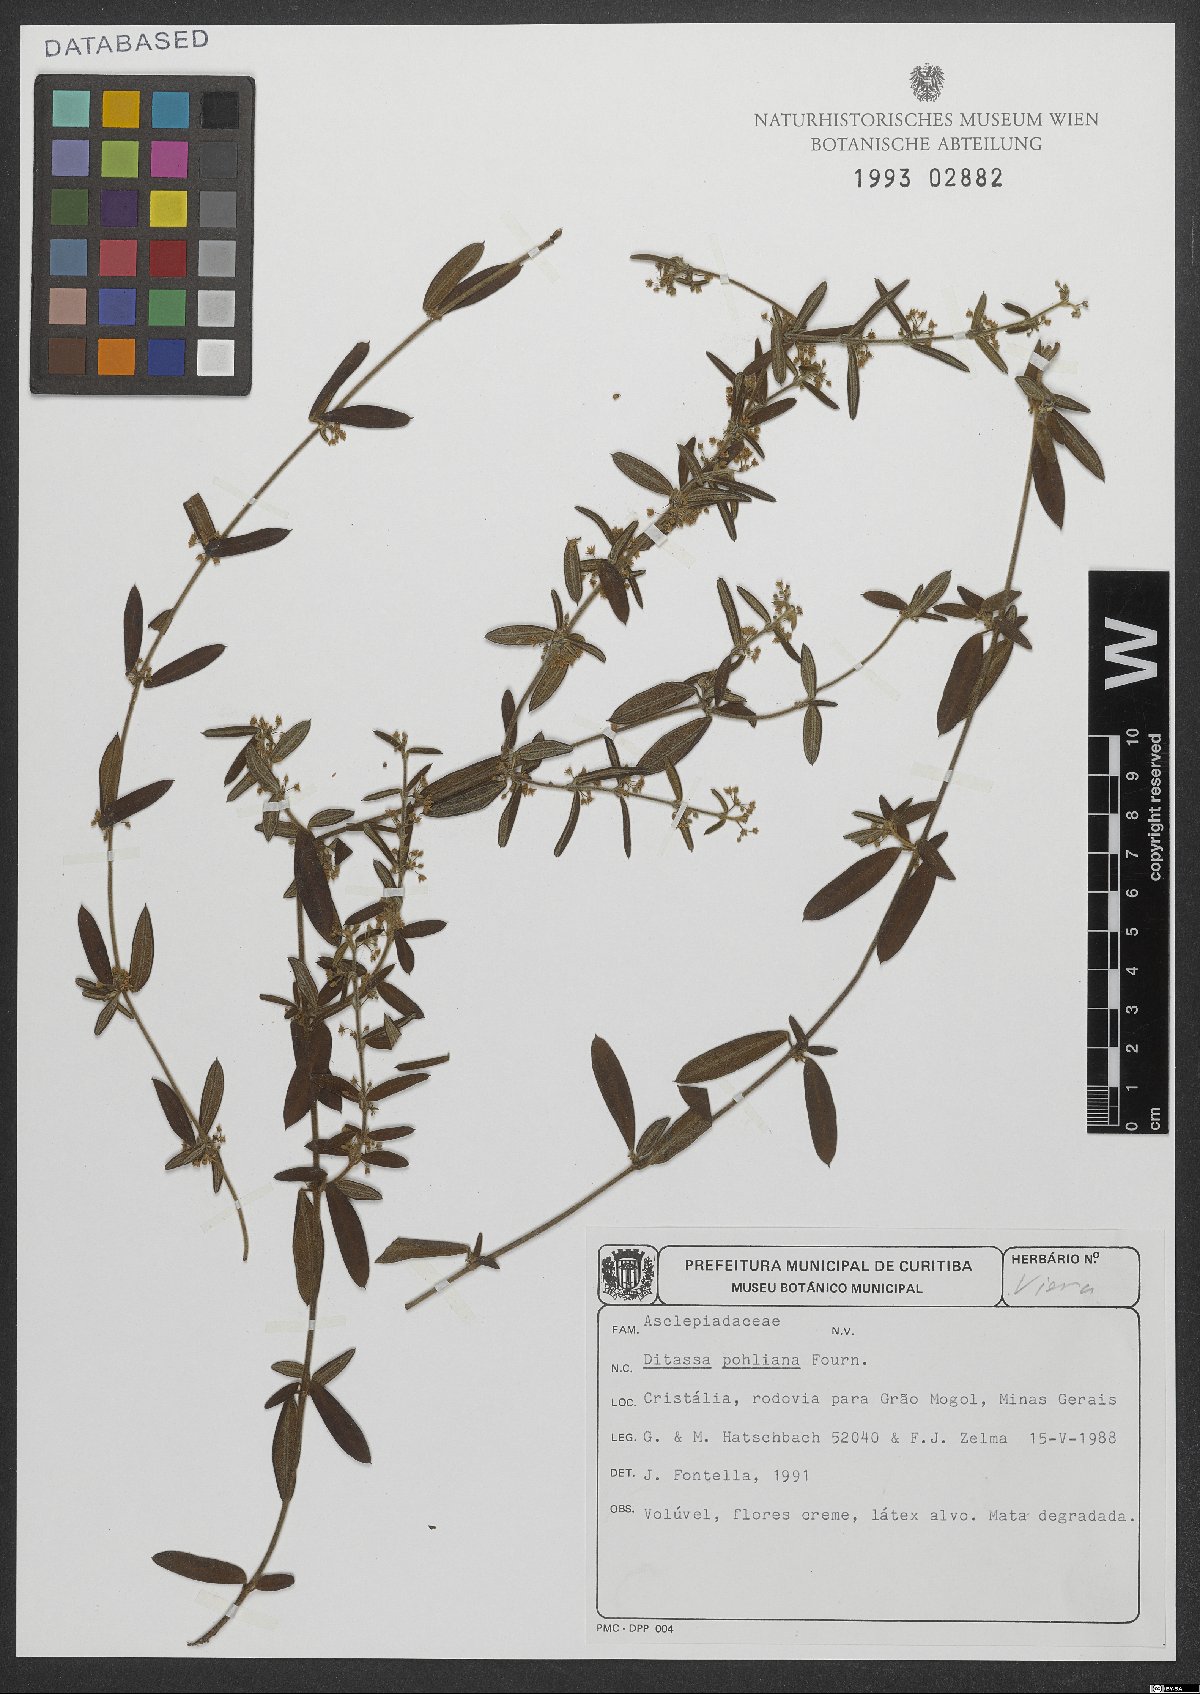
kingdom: Plantae
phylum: Tracheophyta
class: Magnoliopsida
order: Gentianales
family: Apocynaceae
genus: Ditassa
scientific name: Ditassa pohliana
